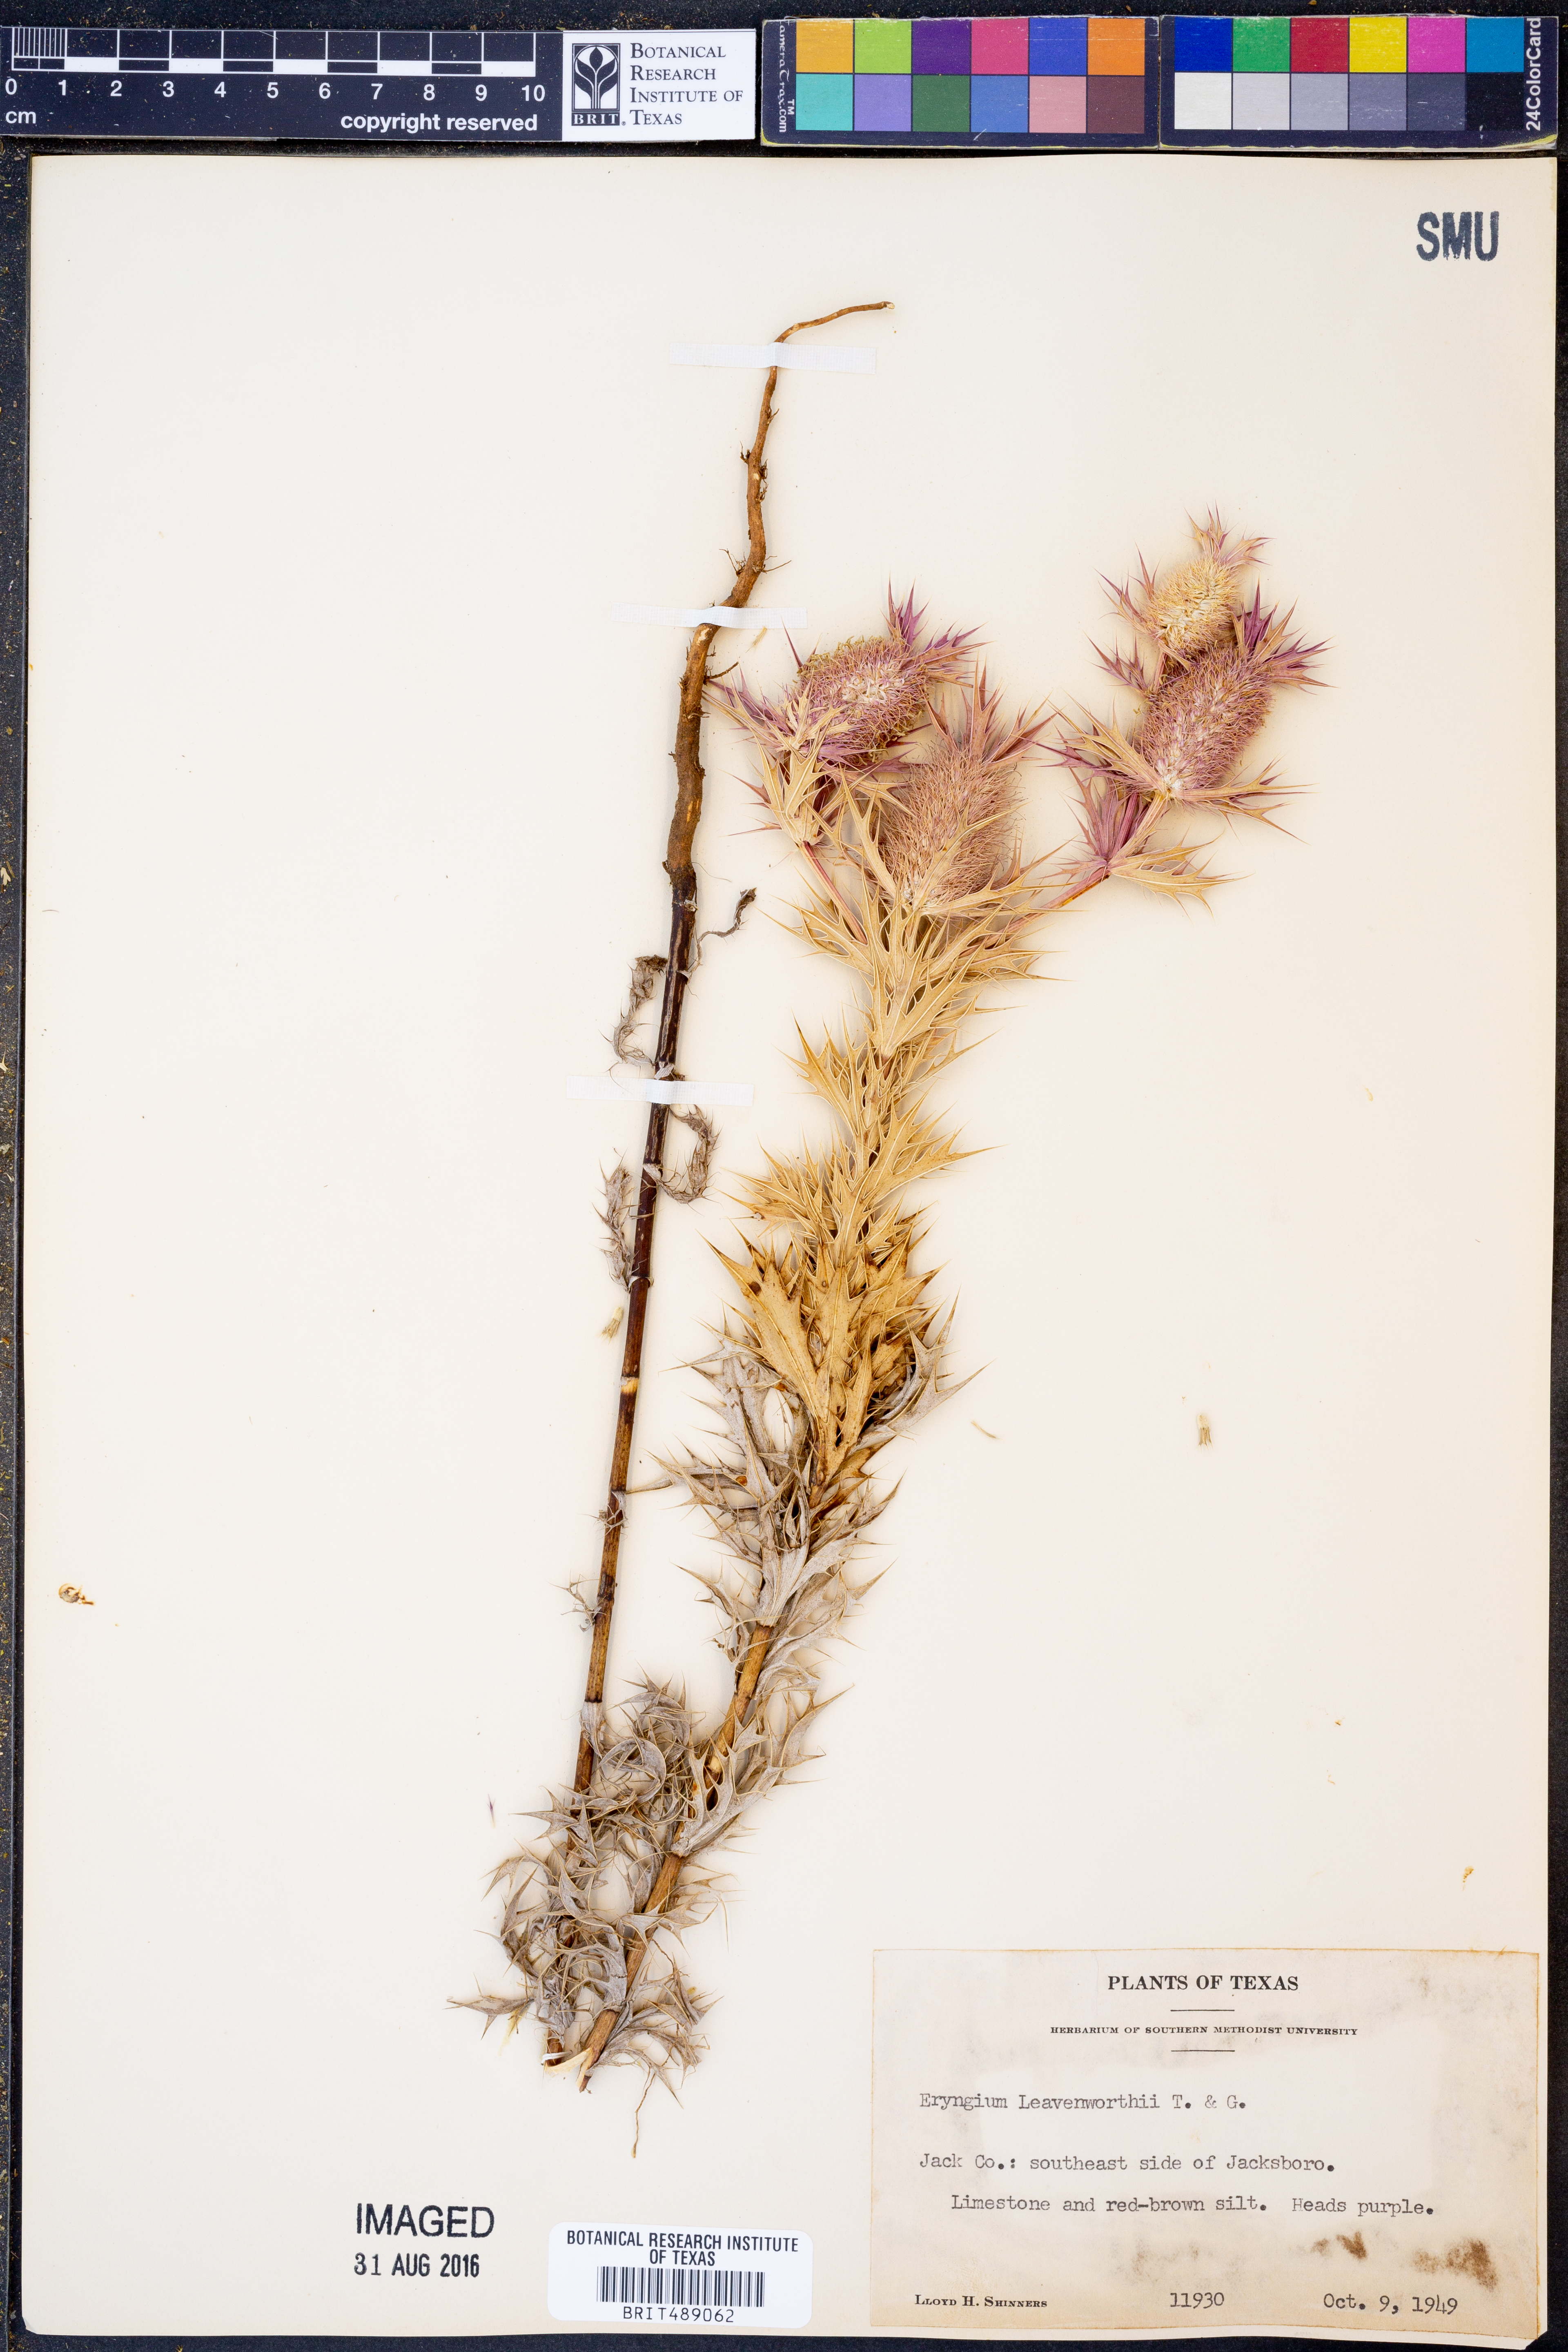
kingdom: Plantae
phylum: Tracheophyta
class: Magnoliopsida
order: Apiales
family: Apiaceae
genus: Eryngium
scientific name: Eryngium leavenworthii
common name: Leavenworth's eryngo
